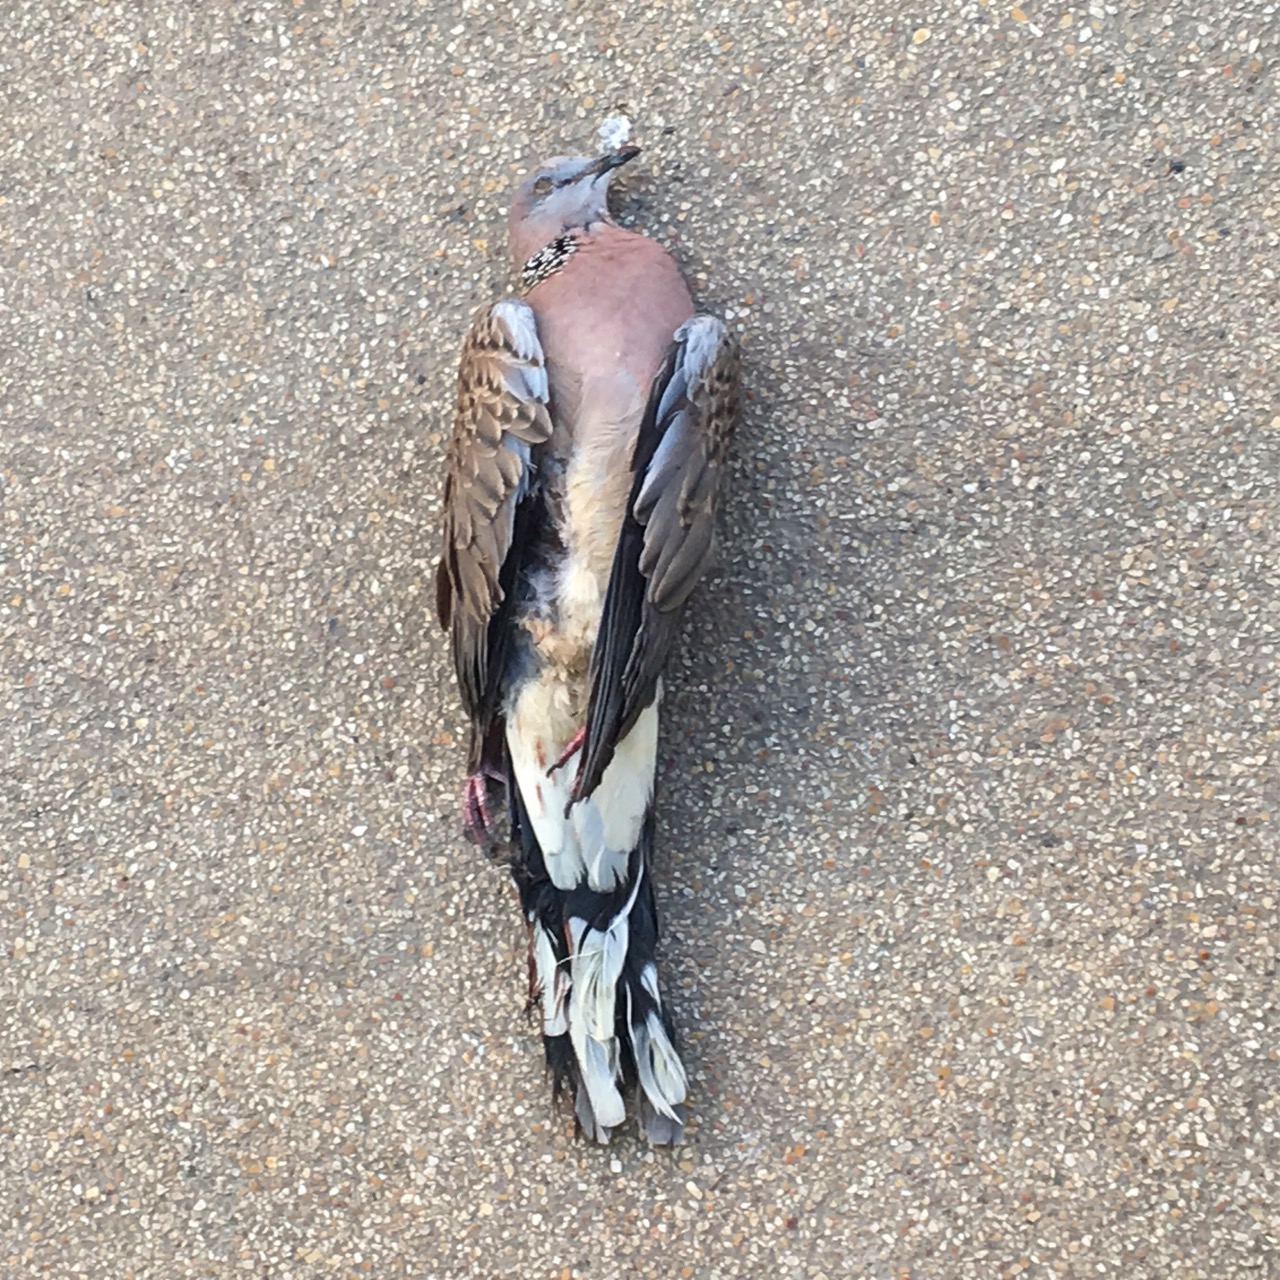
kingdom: Animalia
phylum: Chordata
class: Aves
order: Columbiformes
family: Columbidae
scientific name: Columbidae
